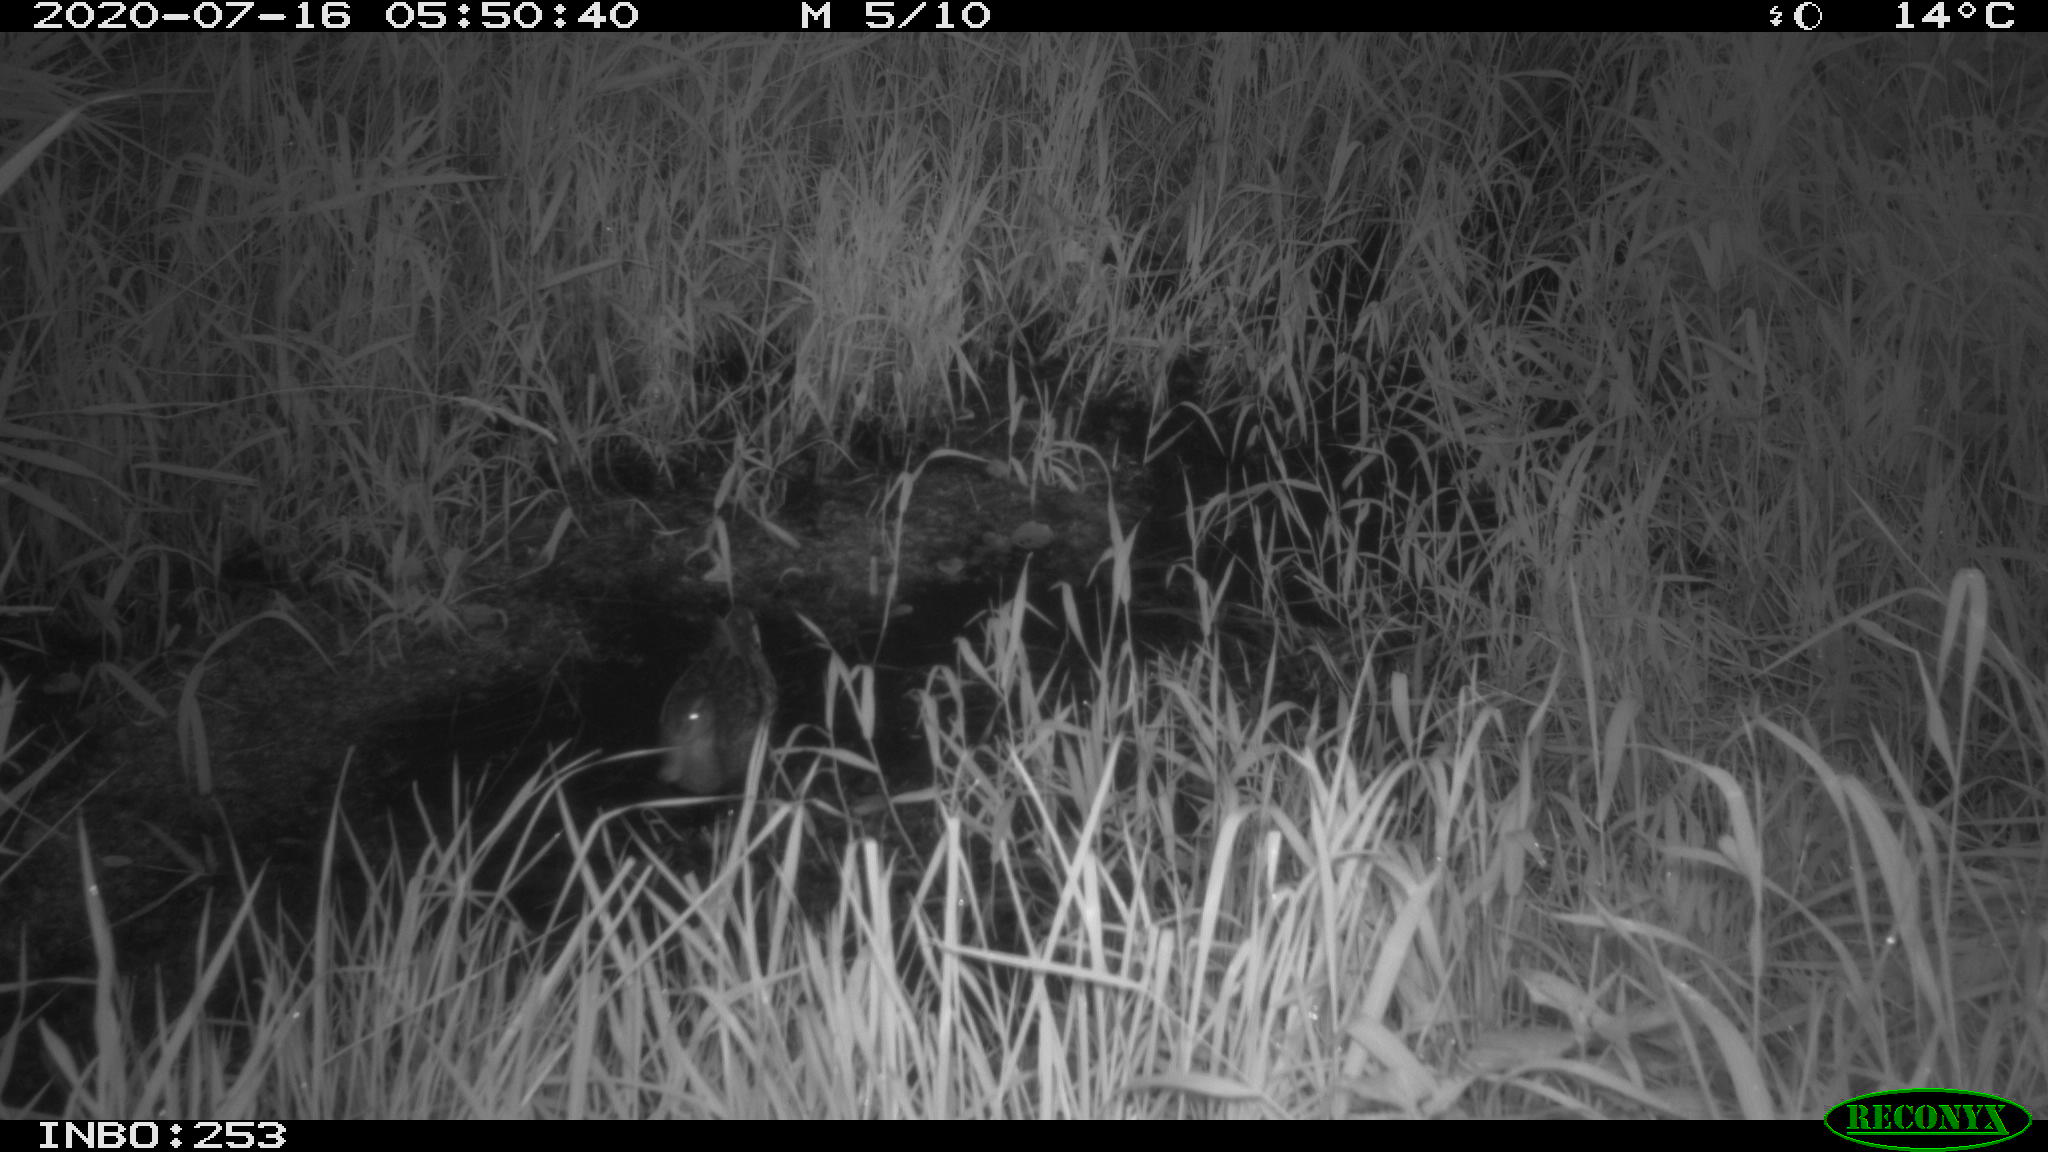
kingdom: Animalia
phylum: Chordata
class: Aves
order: Anseriformes
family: Anatidae
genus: Anas
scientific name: Anas platyrhynchos
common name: Mallard
